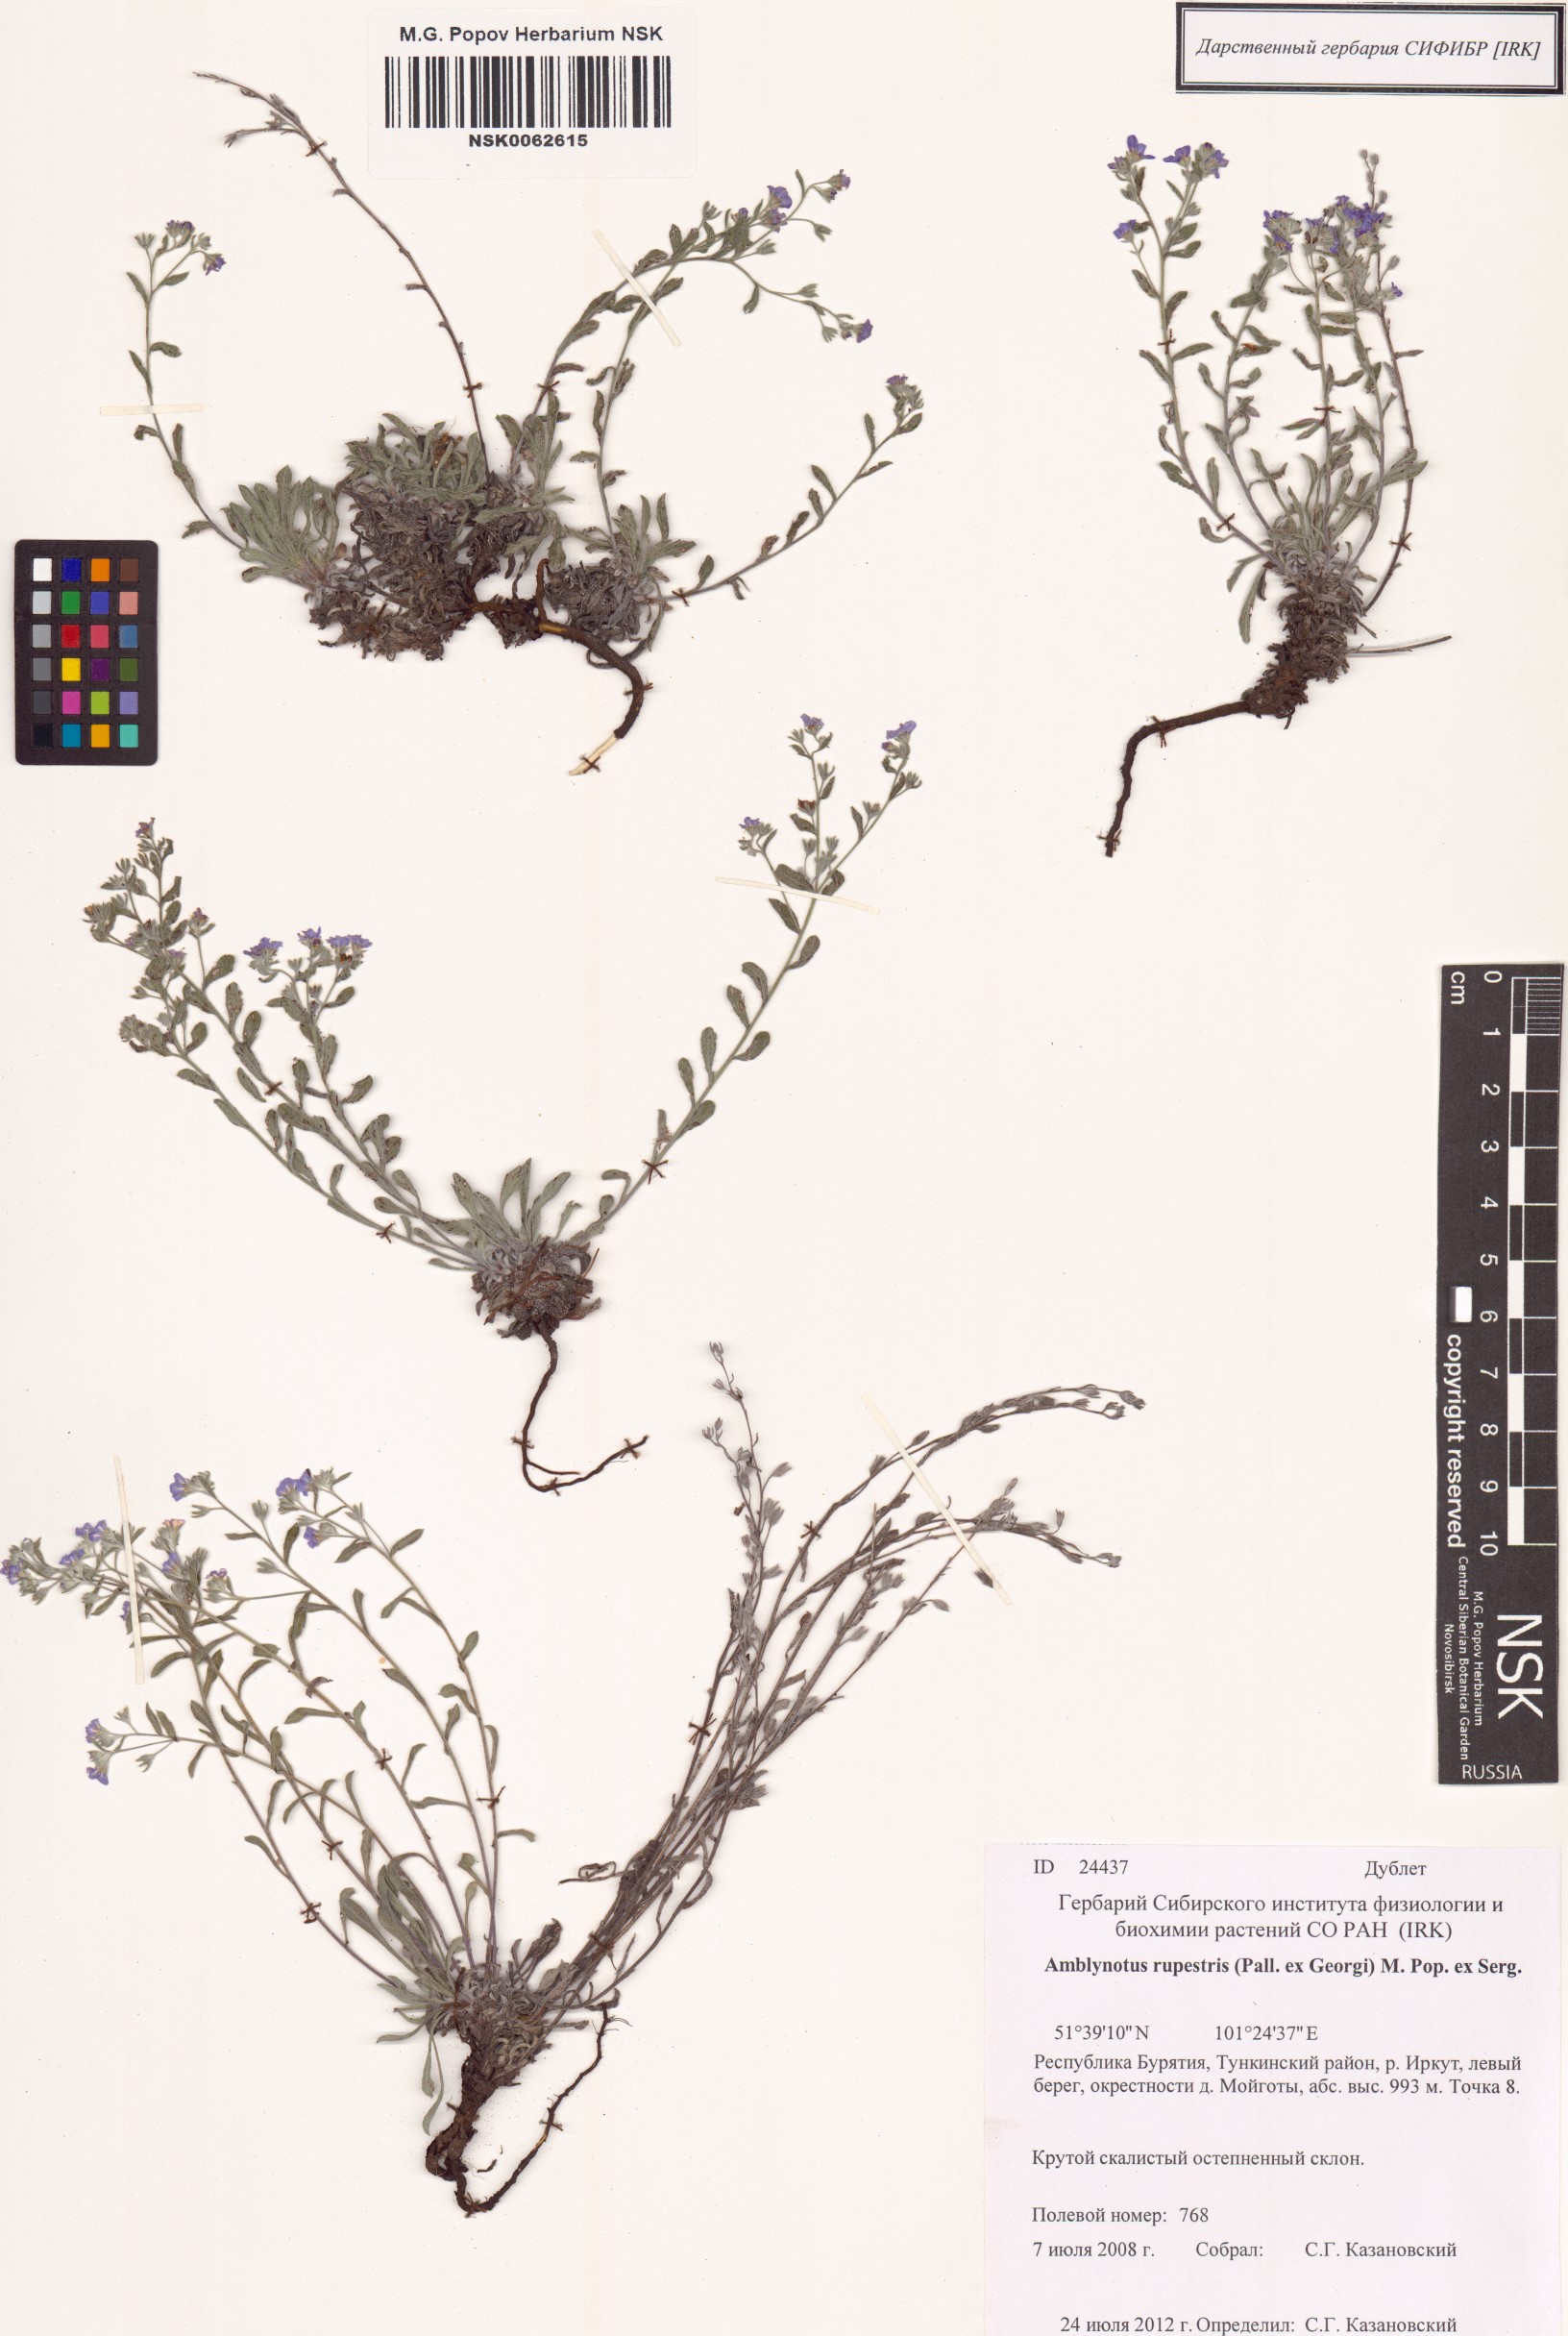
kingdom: Plantae
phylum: Tracheophyta
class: Magnoliopsida
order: Boraginales
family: Boraginaceae
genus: Eritrichium
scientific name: Eritrichium rupestre
